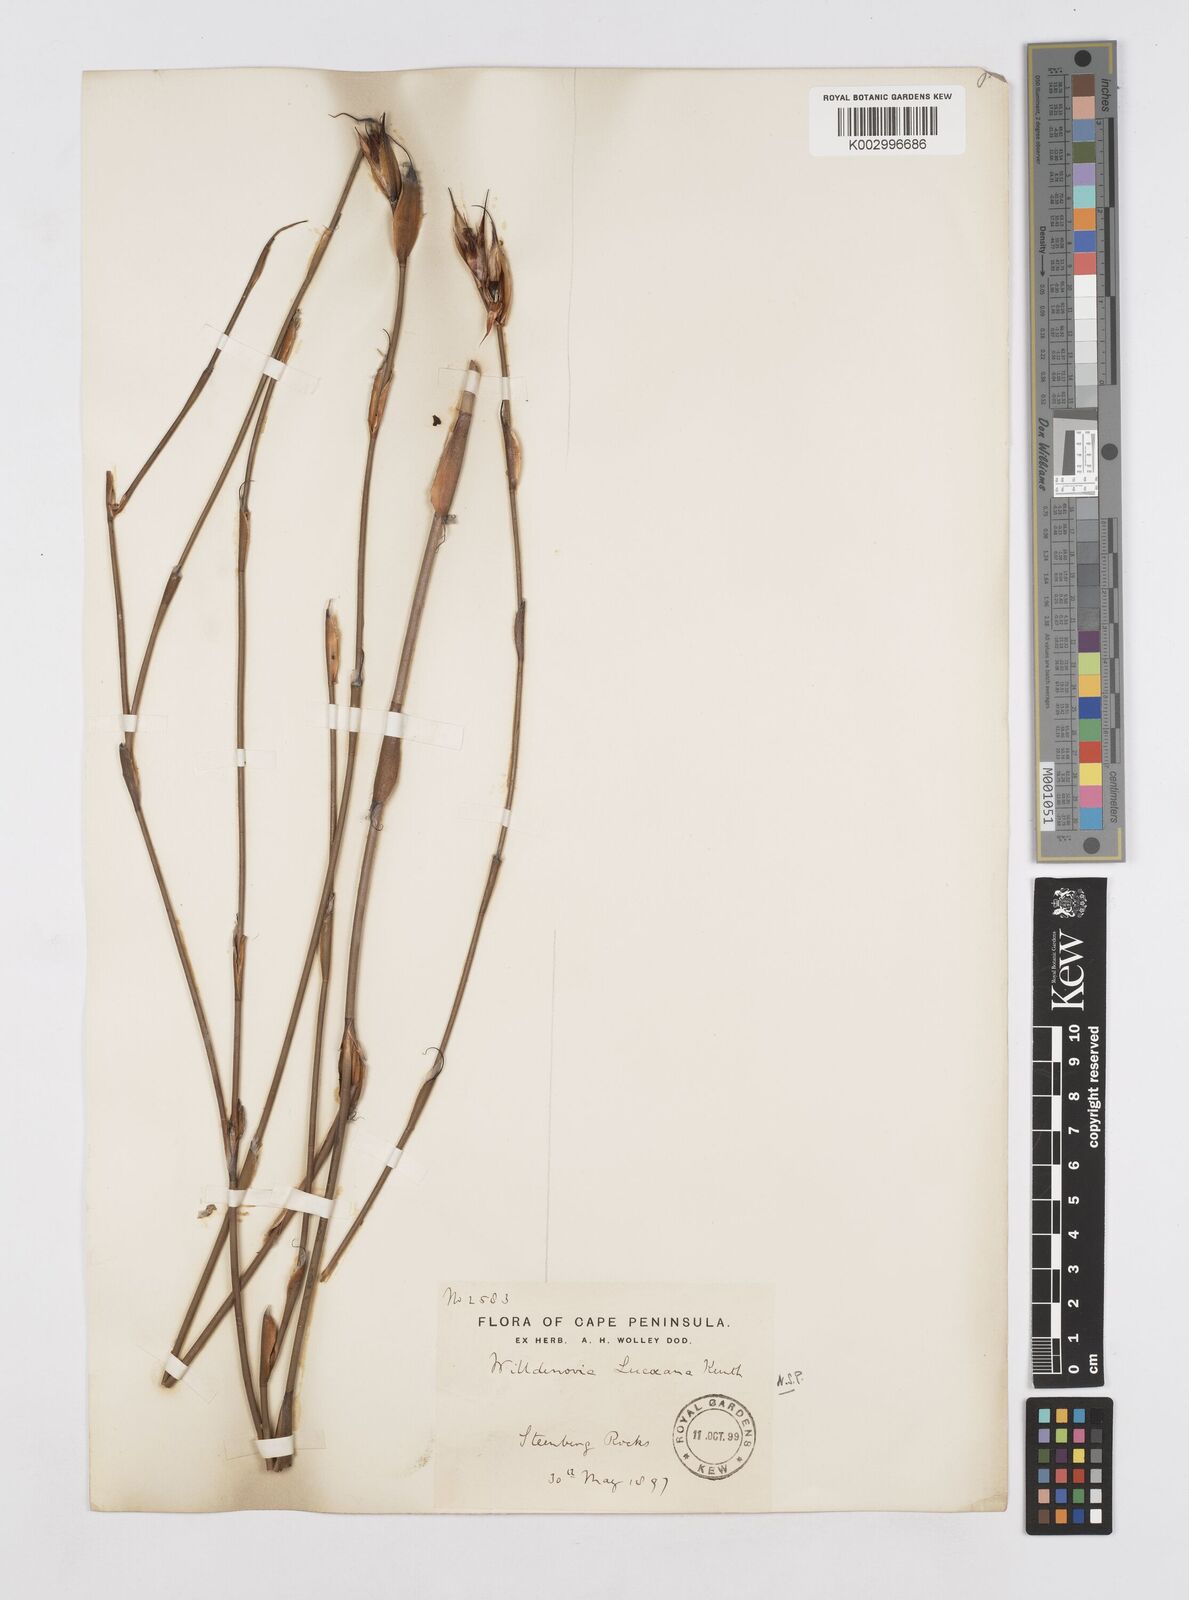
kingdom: Plantae
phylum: Tracheophyta
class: Liliopsida
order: Poales
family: Restionaceae
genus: Willdenowia
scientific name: Willdenowia glomerata
